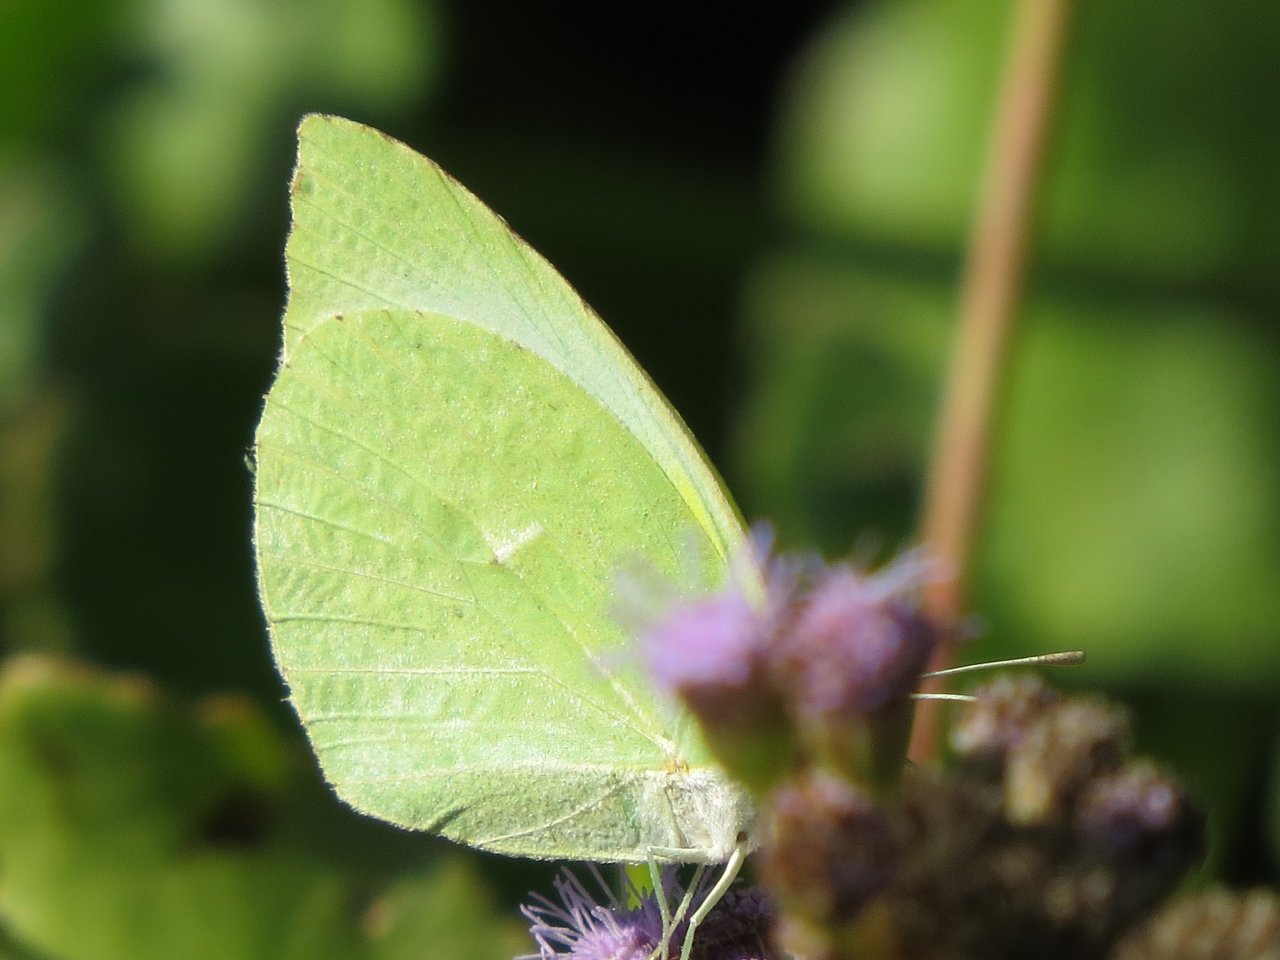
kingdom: Animalia
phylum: Arthropoda
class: Insecta
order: Lepidoptera
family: Pieridae
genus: Kricogonia
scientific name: Kricogonia lyside
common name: Lyside Sulphur
